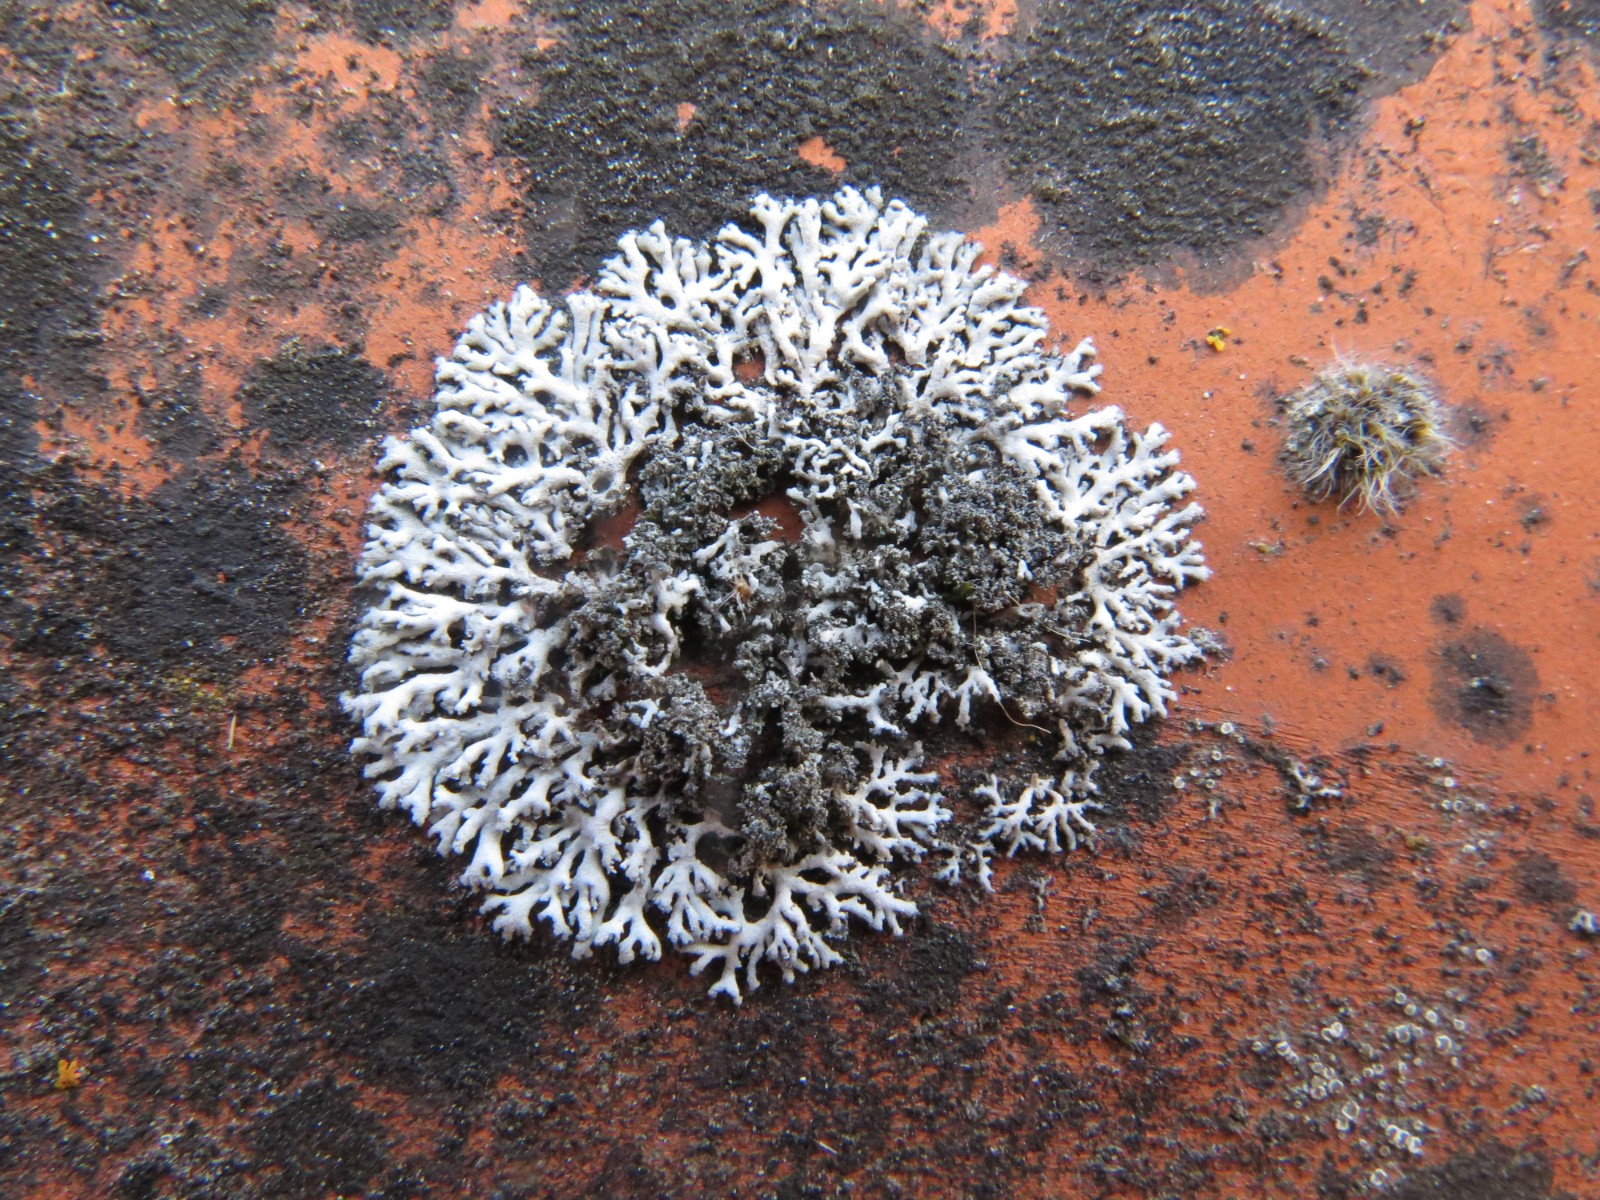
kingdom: Fungi
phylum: Ascomycota
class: Lecanoromycetes
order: Caliciales
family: Physciaceae
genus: Physcia
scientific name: Physcia dubia
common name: fuglestens-rosetlav
